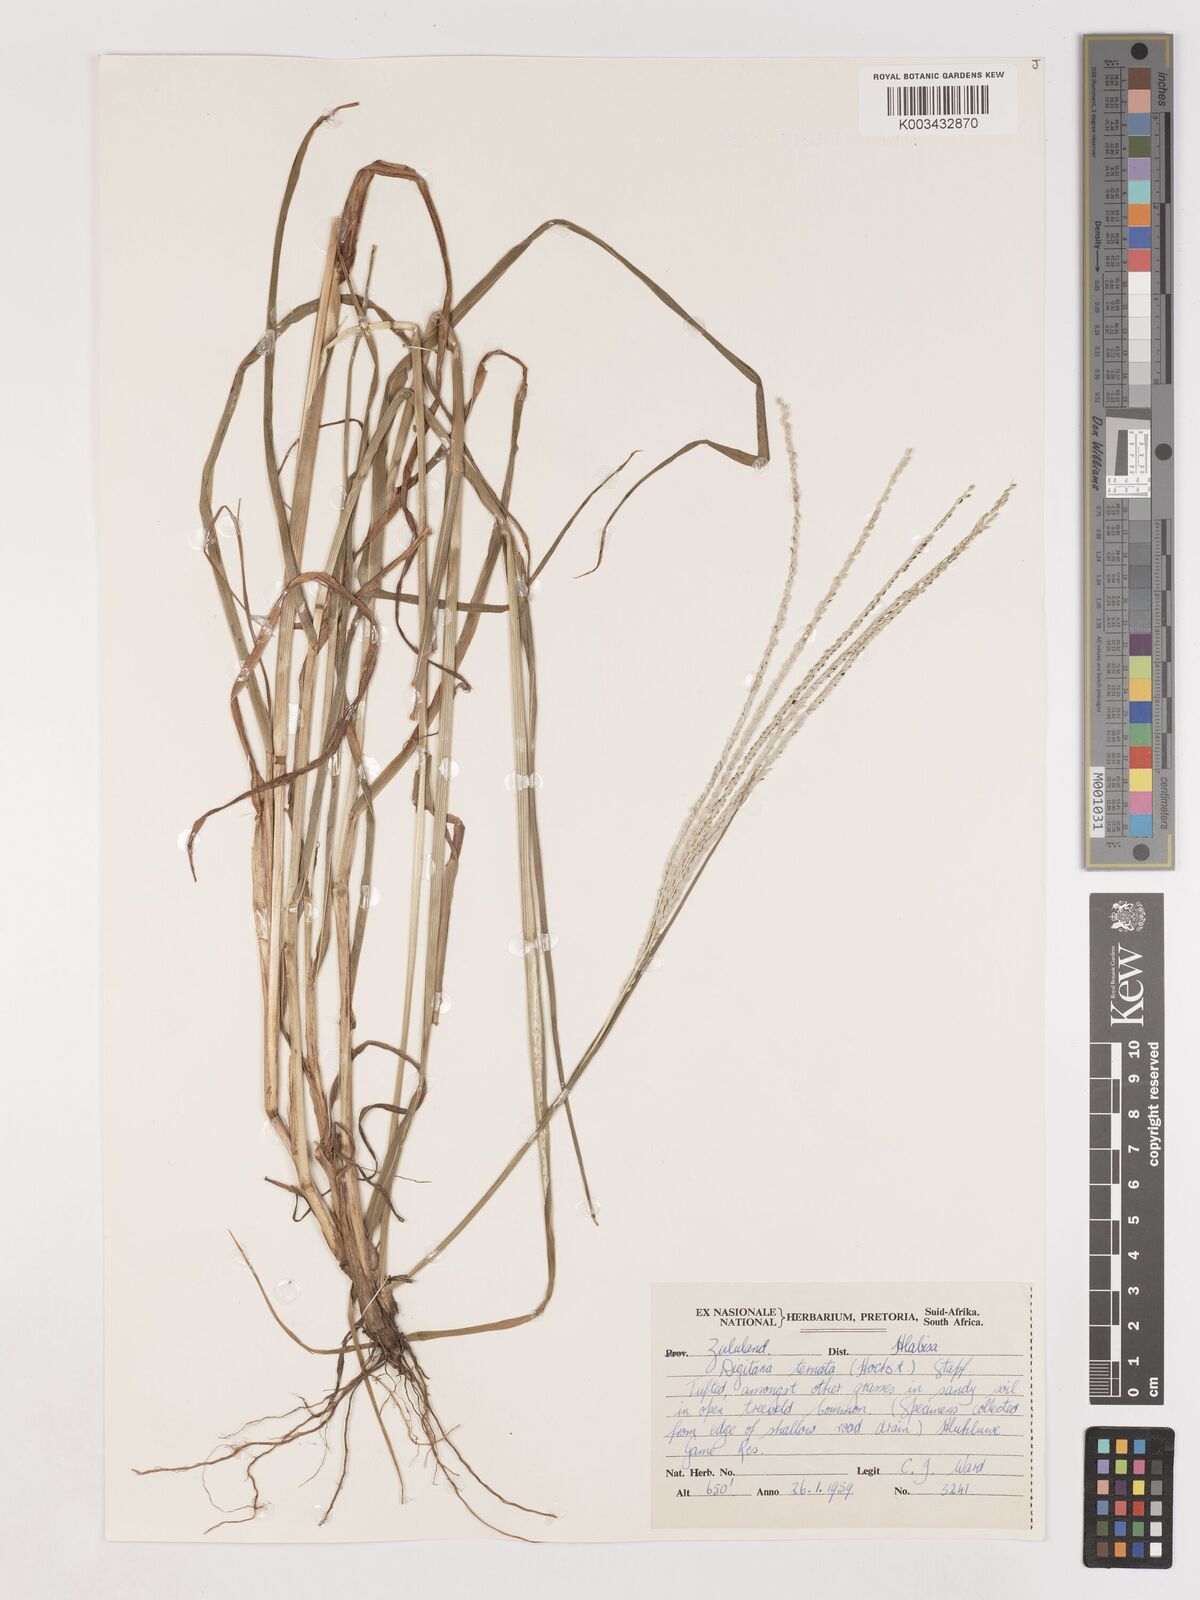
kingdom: Plantae
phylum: Tracheophyta
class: Liliopsida
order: Poales
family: Poaceae
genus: Digitaria
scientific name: Digitaria ternata
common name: Blackseed crabgrass
